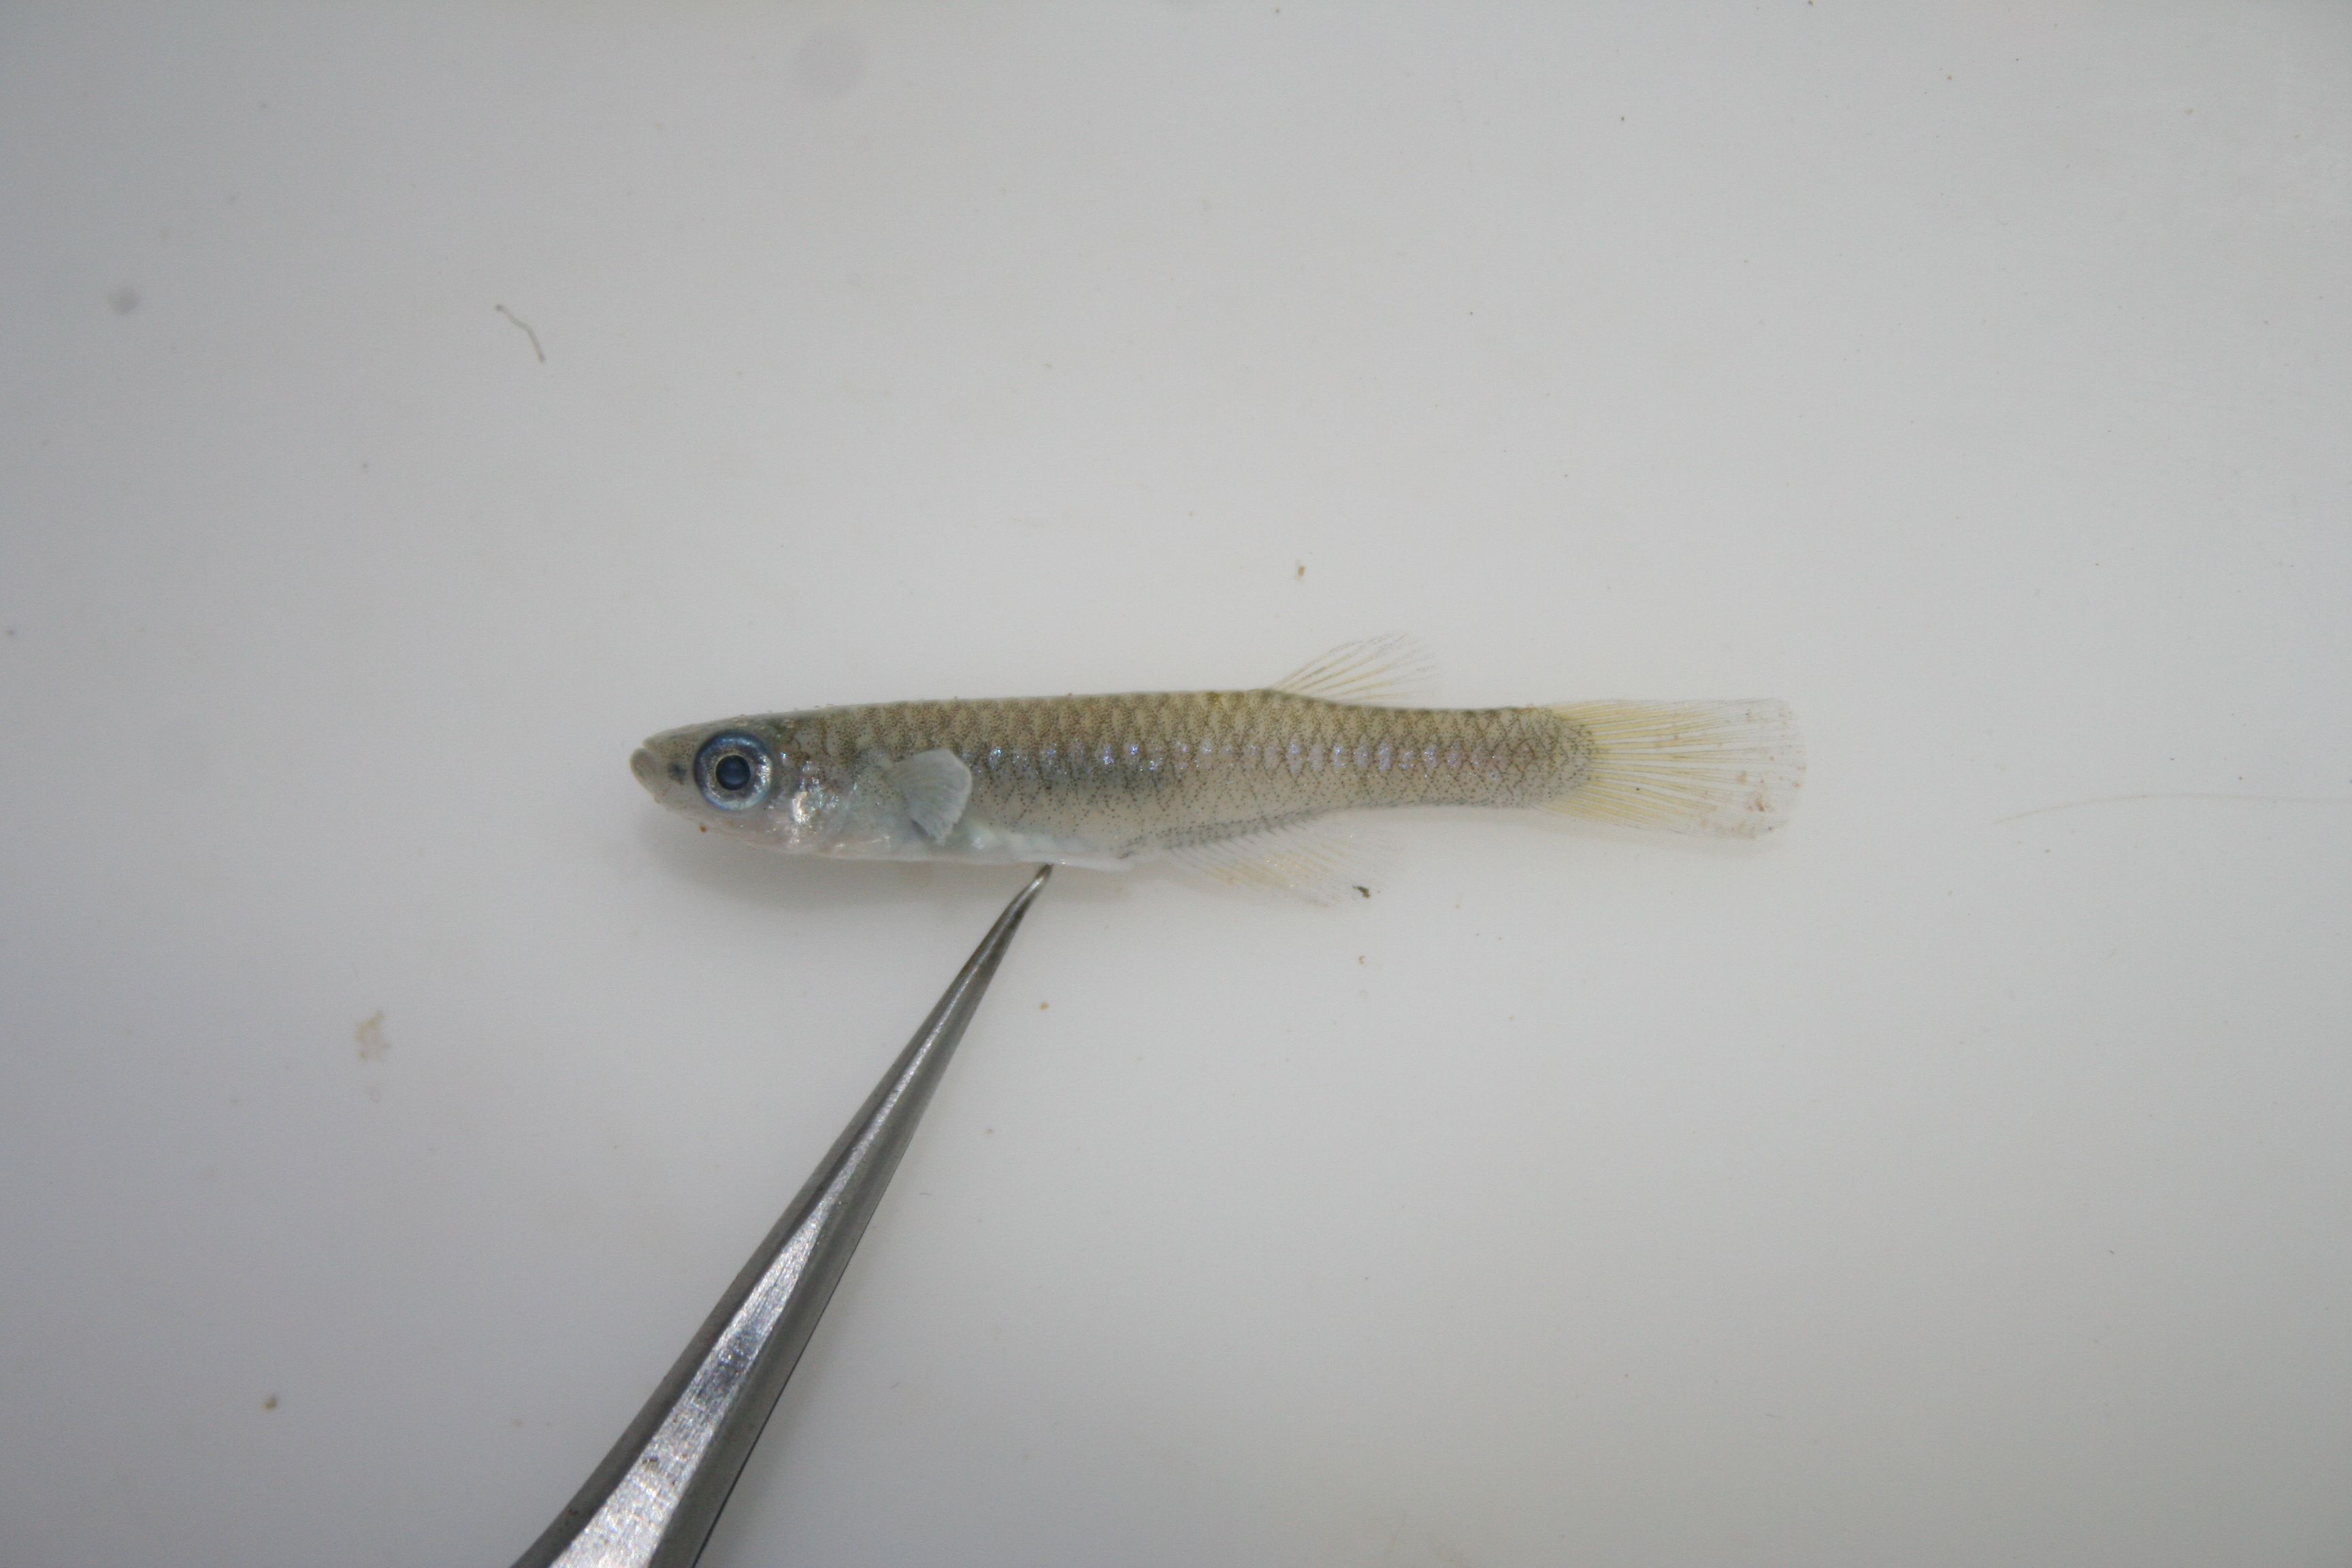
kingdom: Animalia
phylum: Chordata
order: Cyprinodontiformes
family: Poeciliidae
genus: Lacustricola
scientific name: Lacustricola
